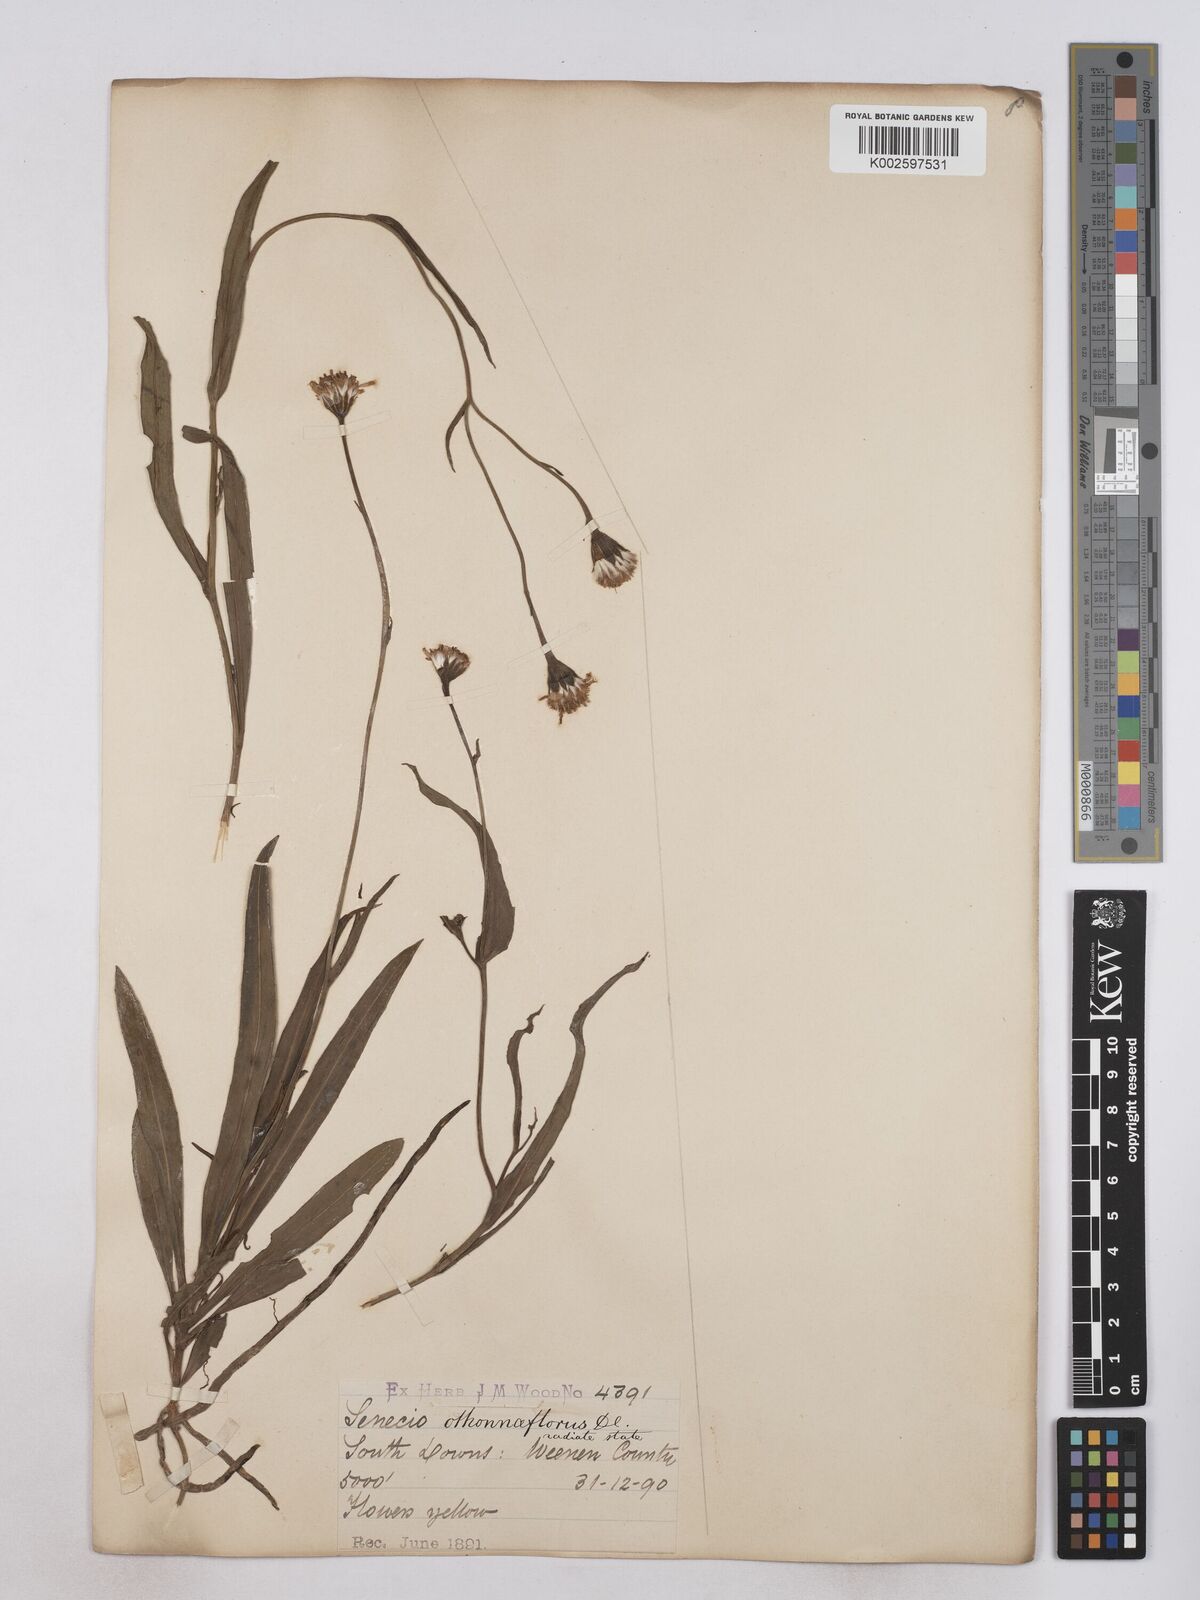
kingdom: Plantae
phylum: Tracheophyta
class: Magnoliopsida
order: Asterales
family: Asteraceae
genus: Senecio
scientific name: Senecio othonniflorus
